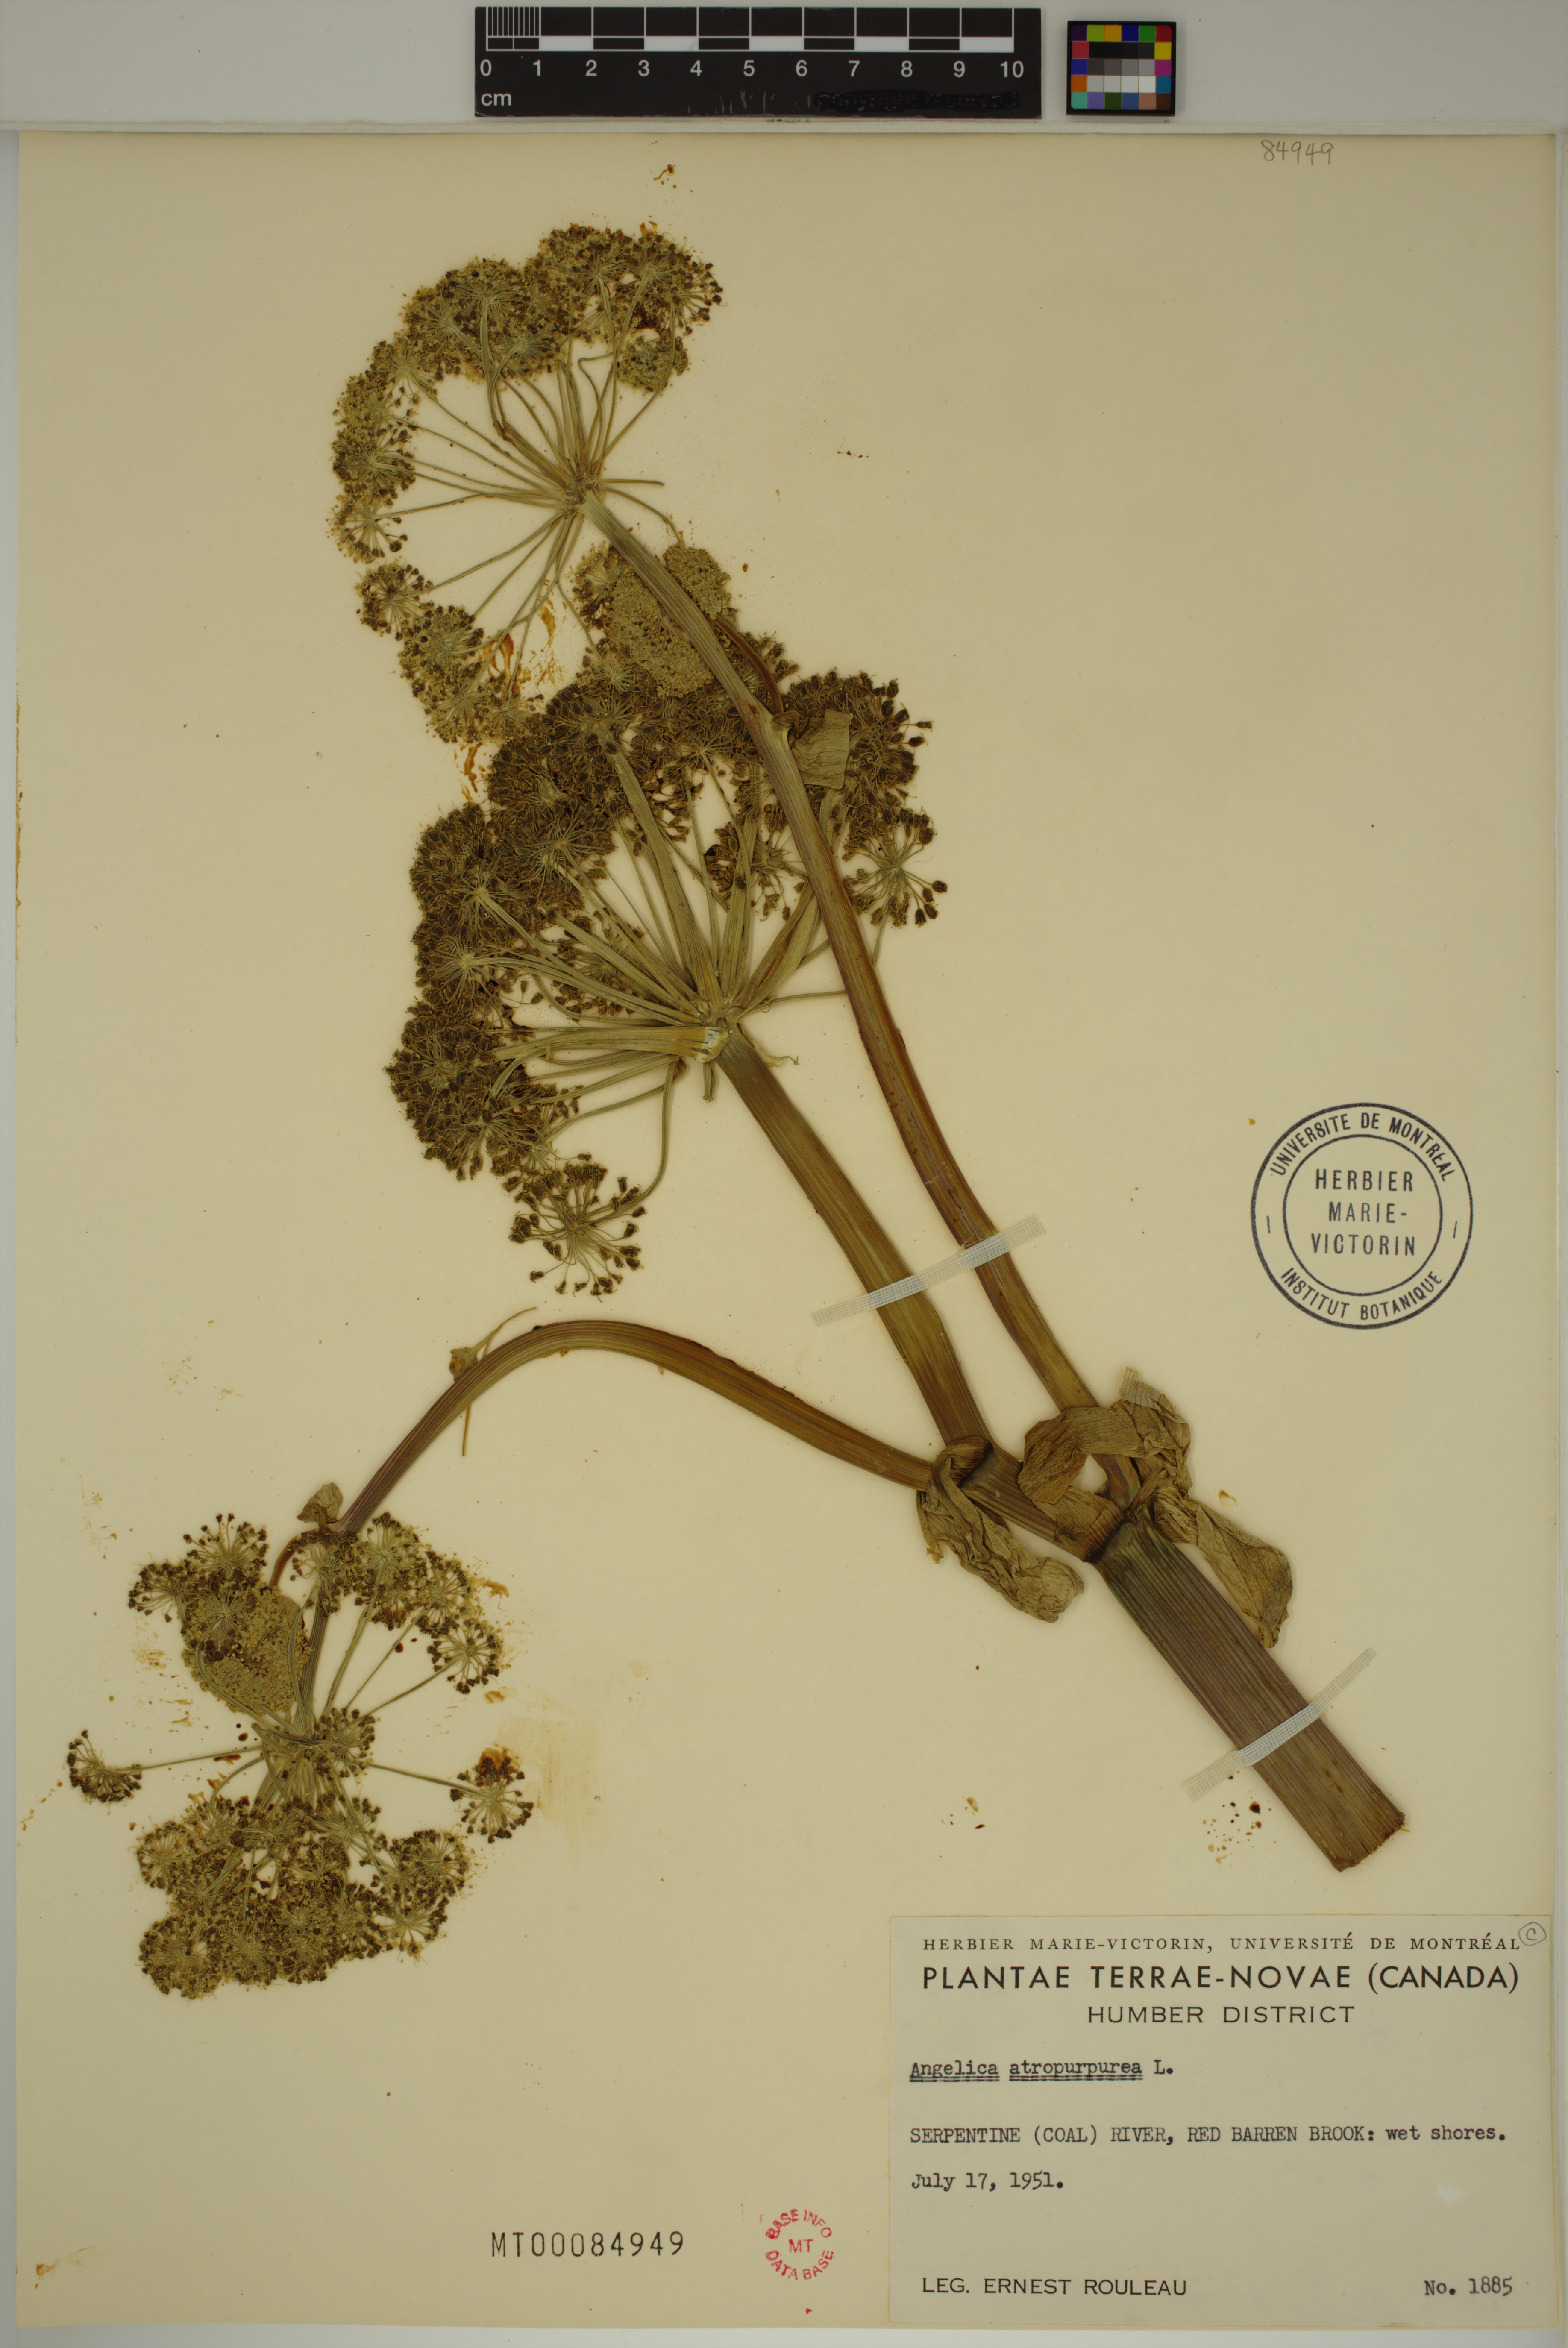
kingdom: Plantae
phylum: Tracheophyta
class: Magnoliopsida
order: Apiales
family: Apiaceae
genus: Angelica
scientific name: Angelica atropurpurea
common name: Great angelica
